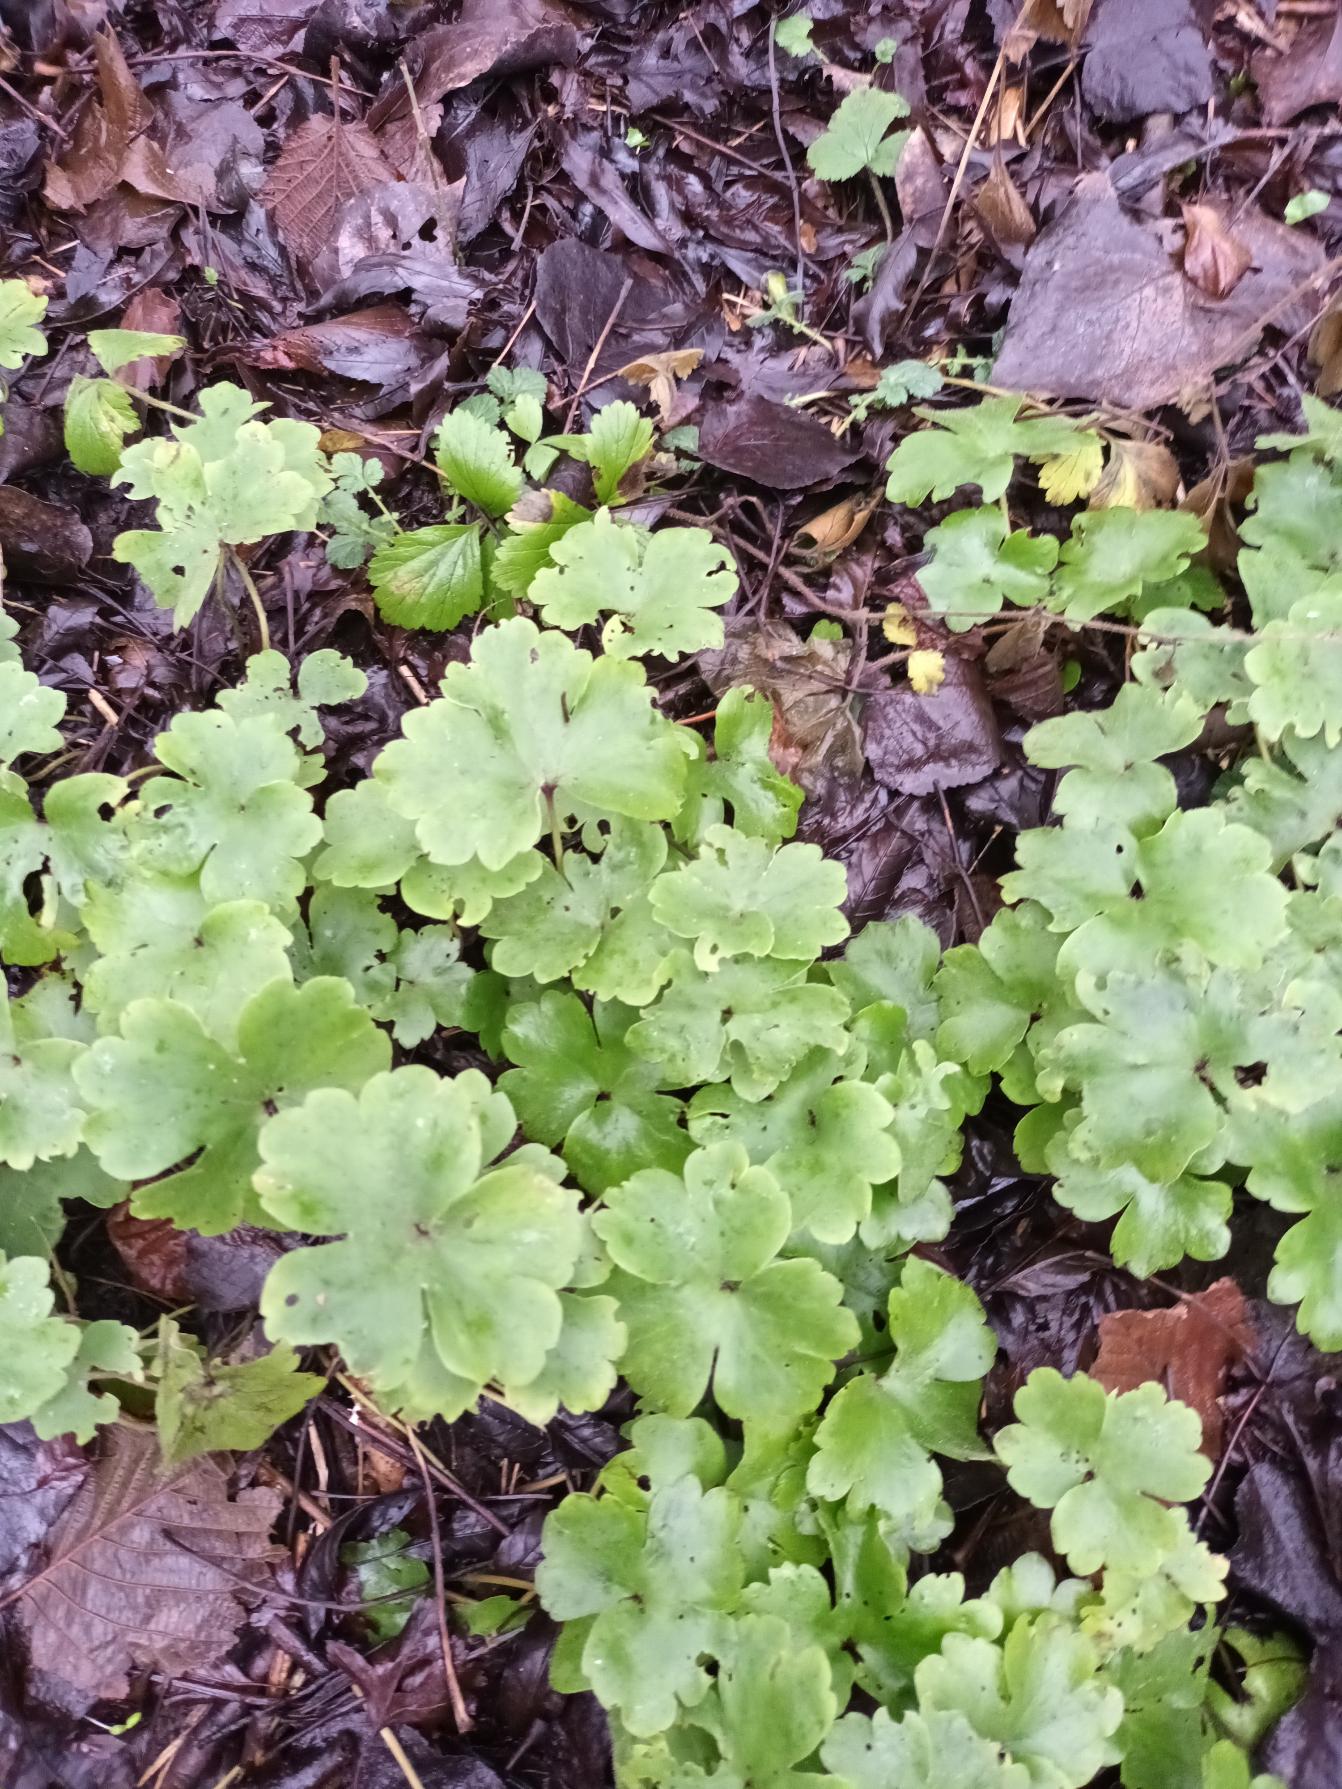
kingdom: Plantae
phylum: Tracheophyta
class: Magnoliopsida
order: Ranunculales
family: Ranunculaceae
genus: Hepatica
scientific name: Hepatica transsilvanica
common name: Ungarsk anemone
